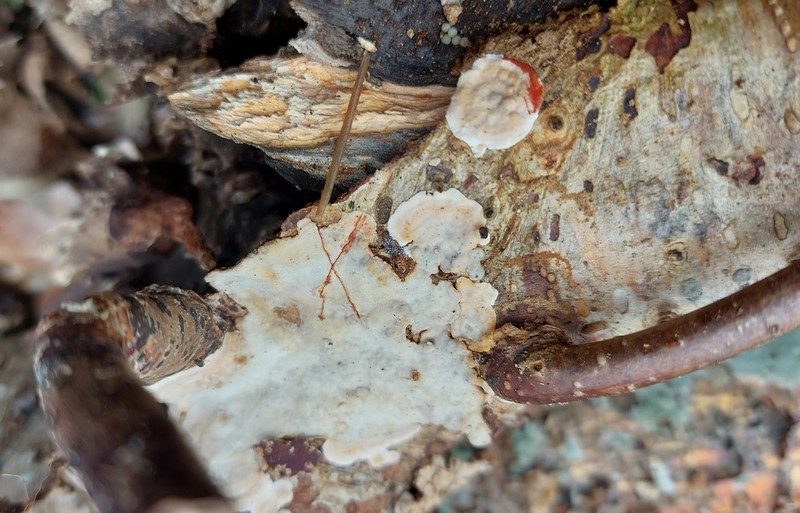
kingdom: Fungi
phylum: Basidiomycota
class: Agaricomycetes
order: Russulales
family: Stereaceae
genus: Stereum
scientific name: Stereum rugosum
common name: rynket lædersvamp
